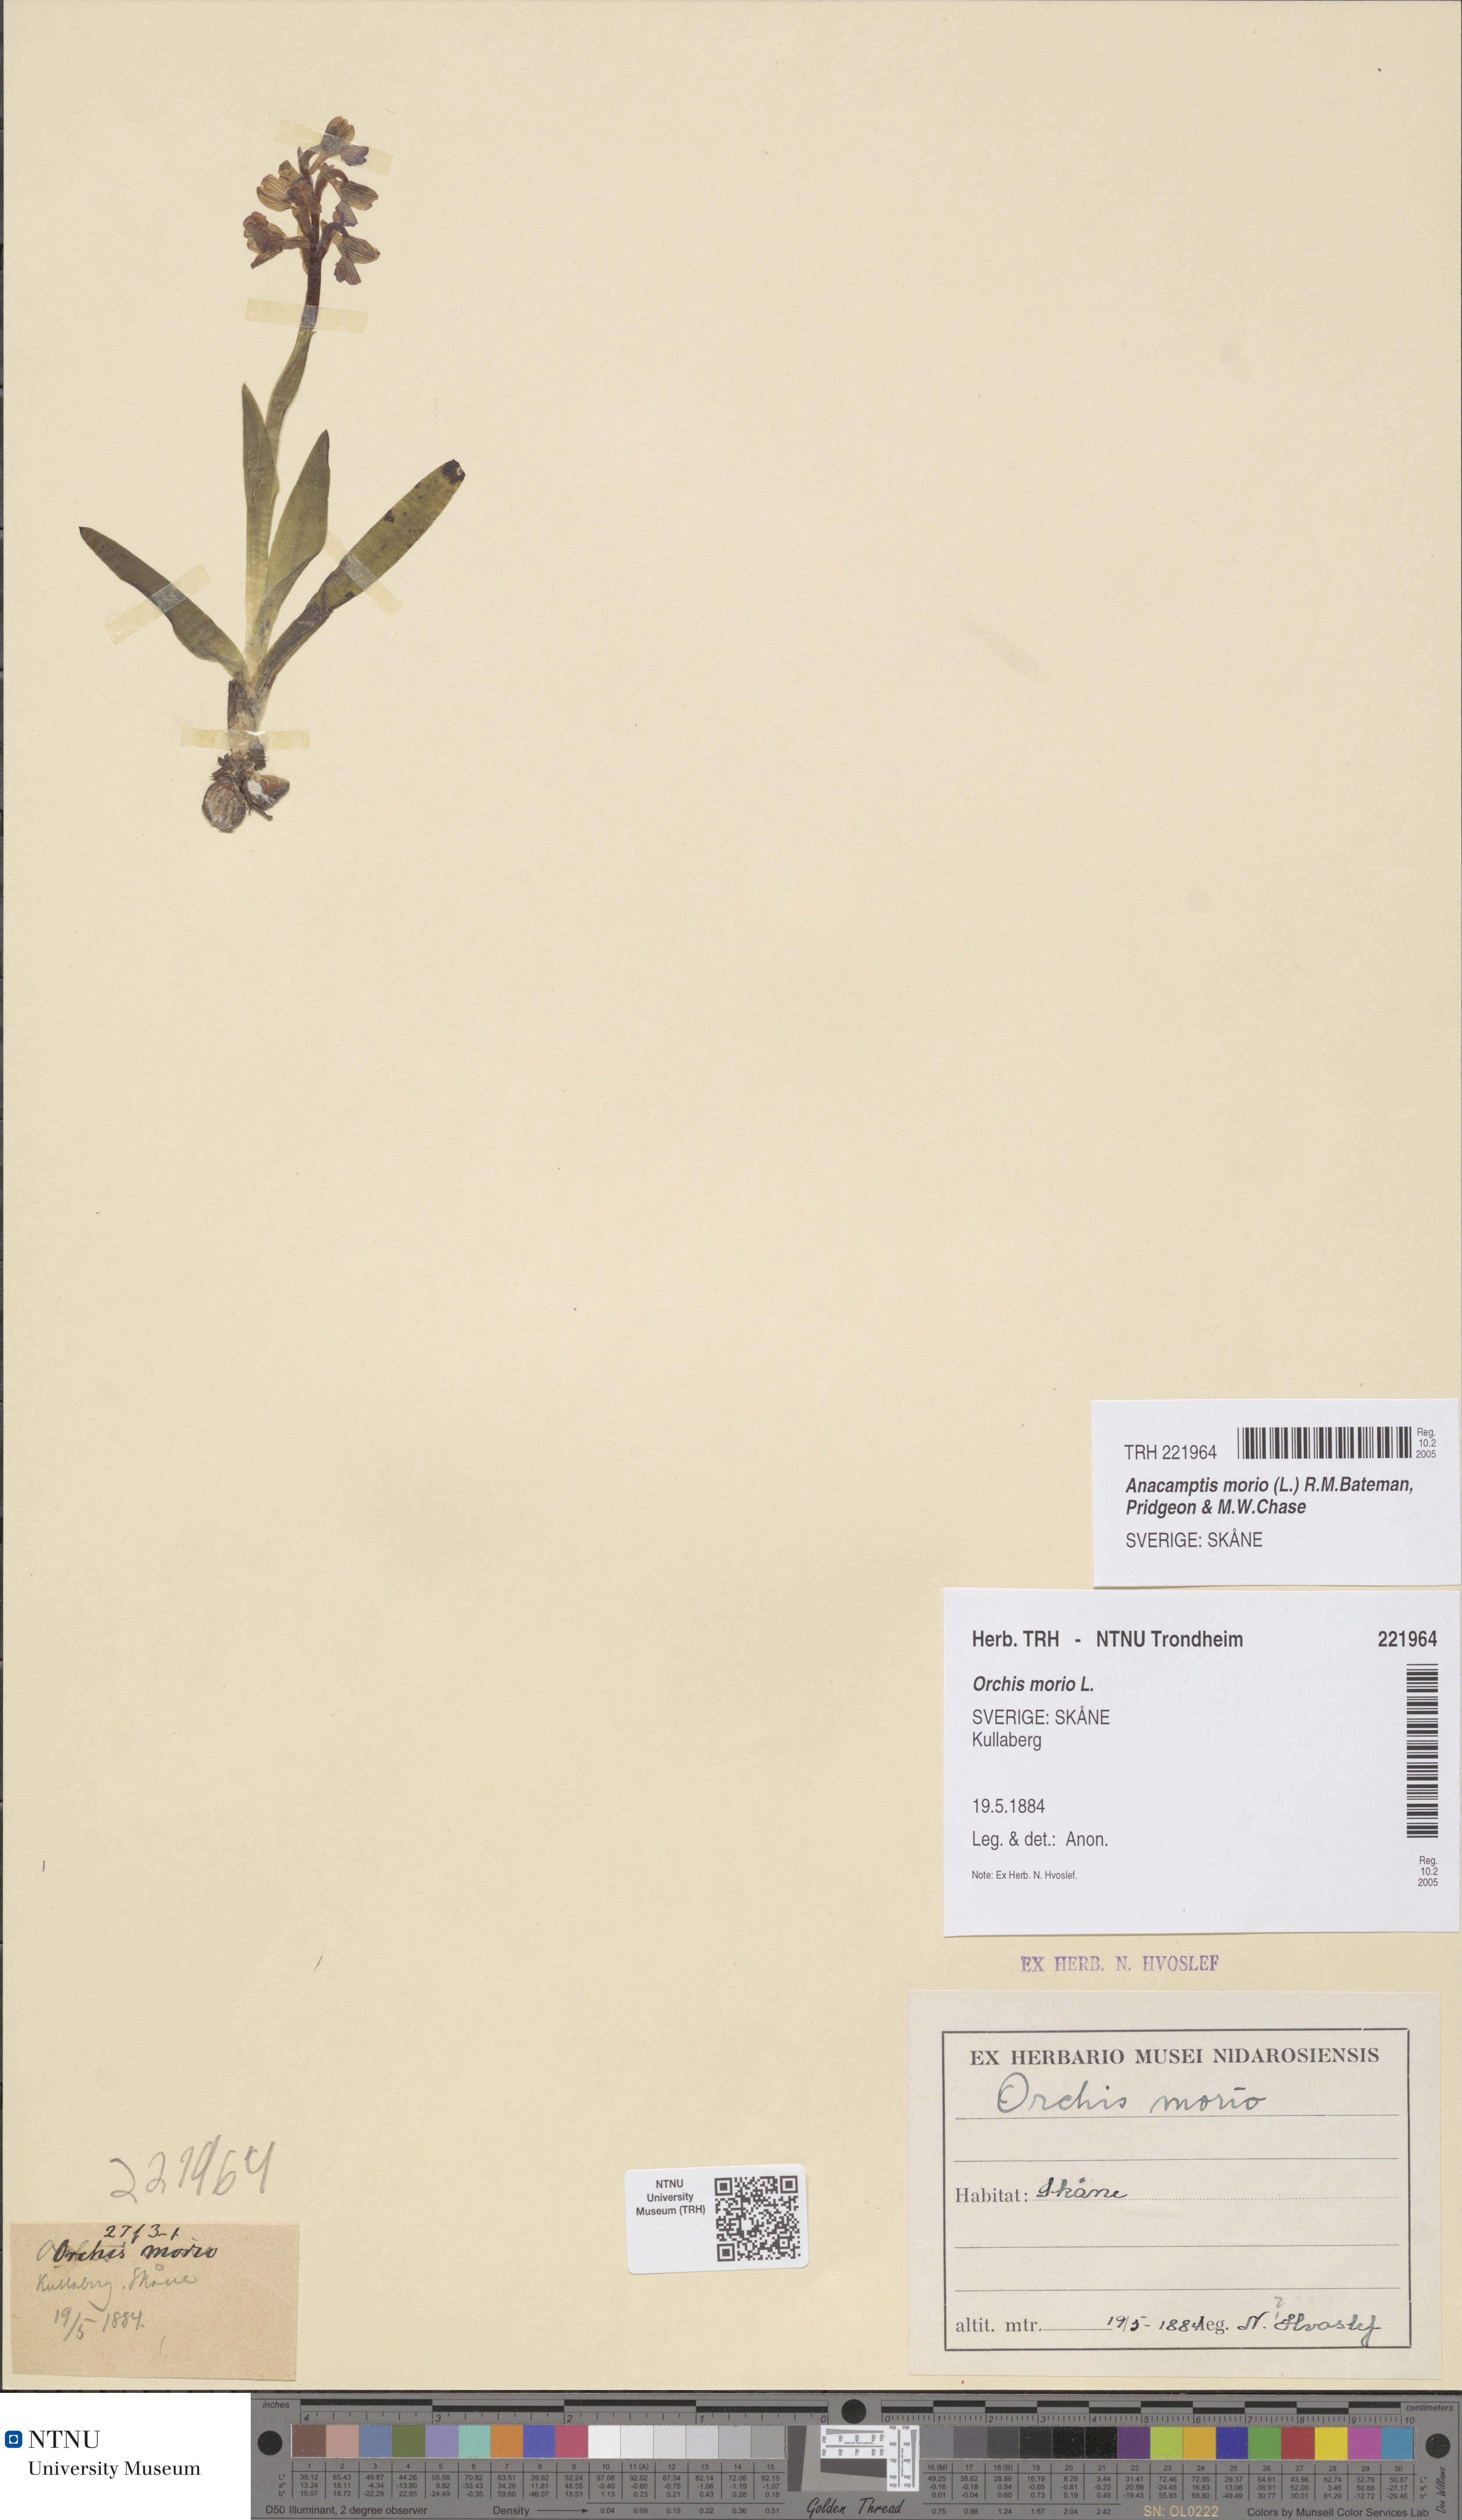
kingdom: Plantae
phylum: Tracheophyta
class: Liliopsida
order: Asparagales
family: Orchidaceae
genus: Anacamptis
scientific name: Anacamptis morio
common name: Green-winged orchid
